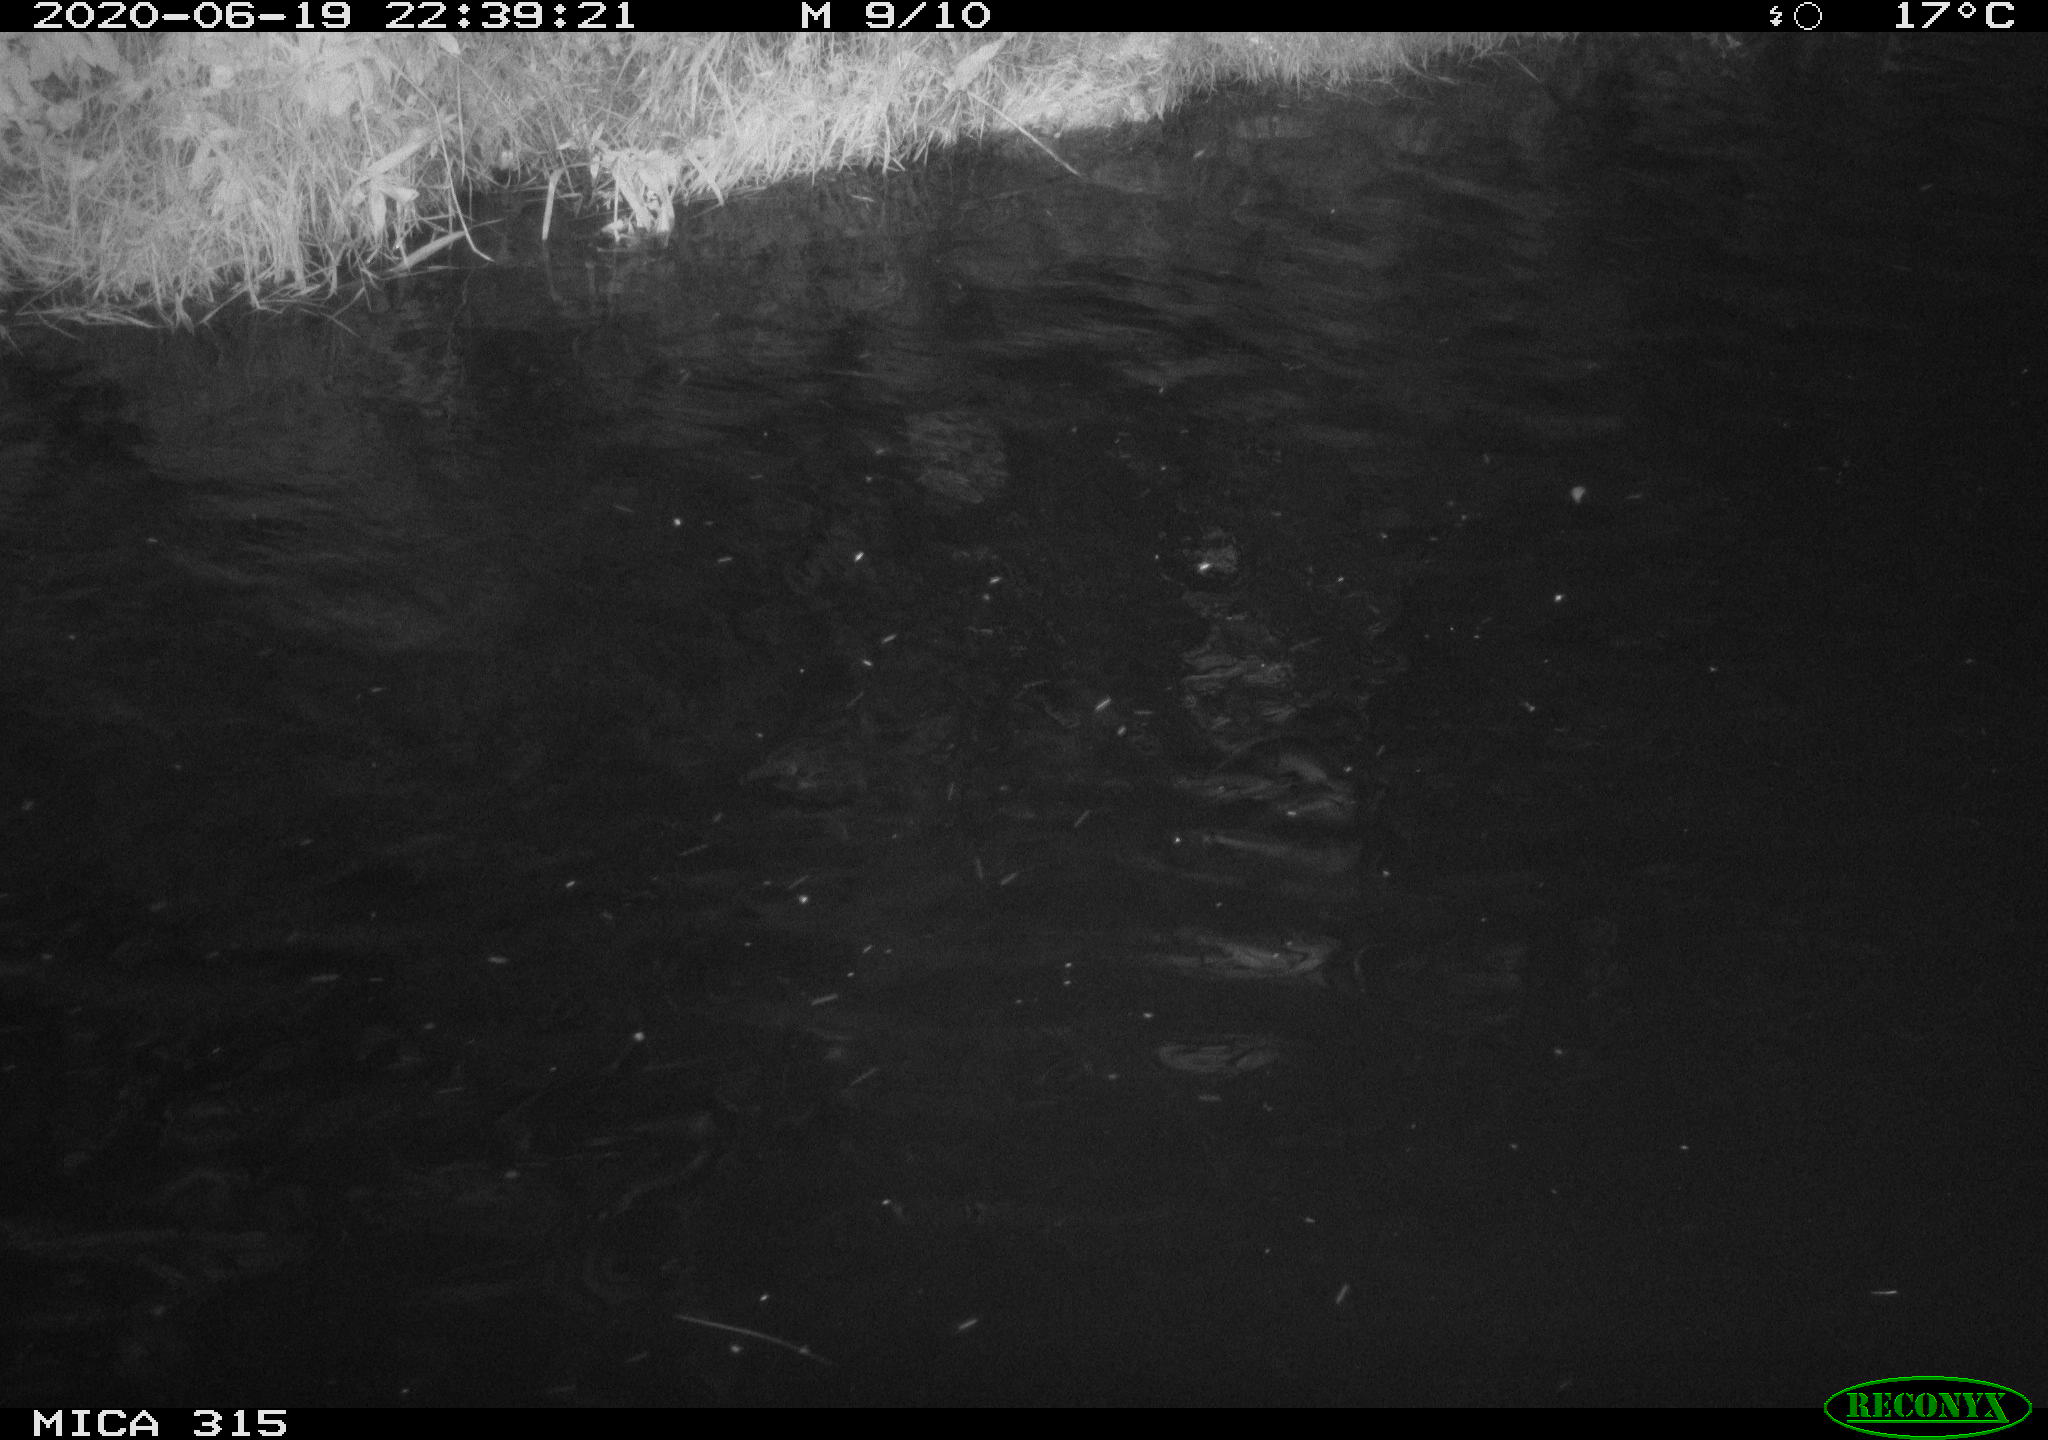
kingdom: Animalia
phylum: Chordata
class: Aves
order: Anseriformes
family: Anatidae
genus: Anas
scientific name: Anas platyrhynchos
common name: Mallard
